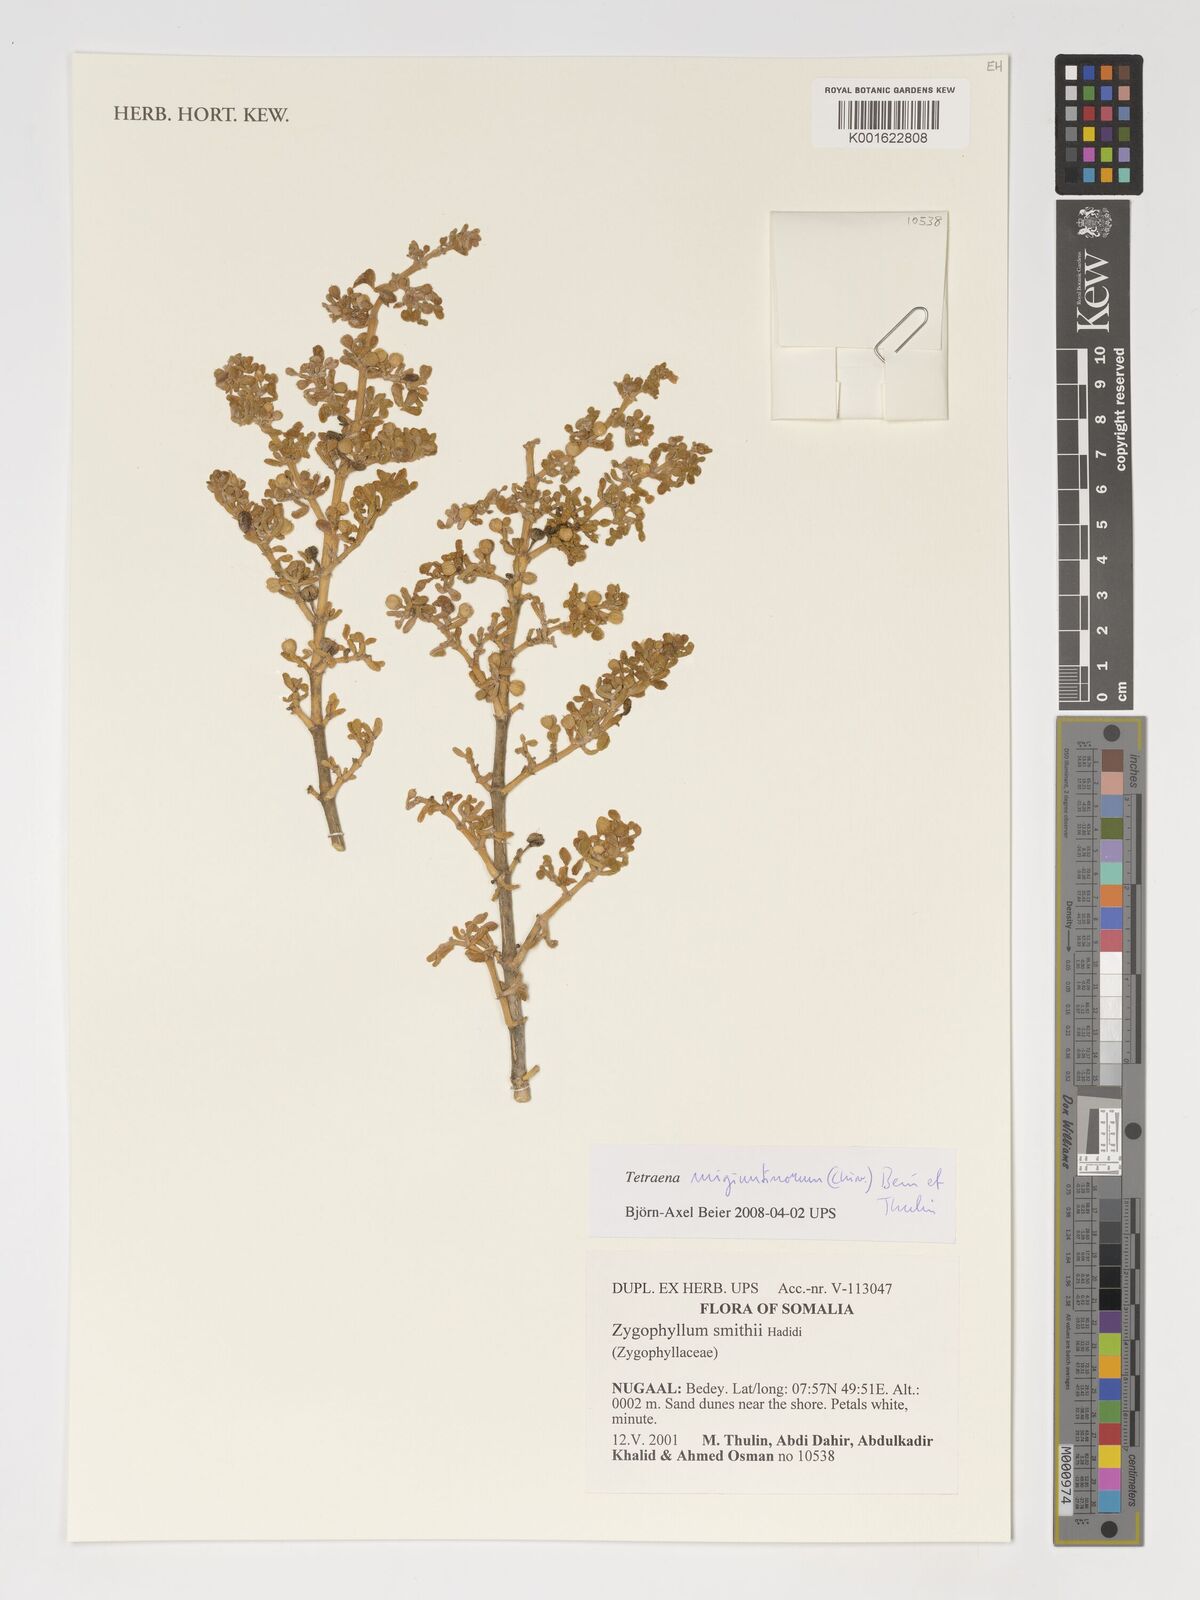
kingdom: Plantae
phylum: Tracheophyta
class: Magnoliopsida
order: Zygophyllales
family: Zygophyllaceae
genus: Tetraena
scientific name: Tetraena migiurtinorum
